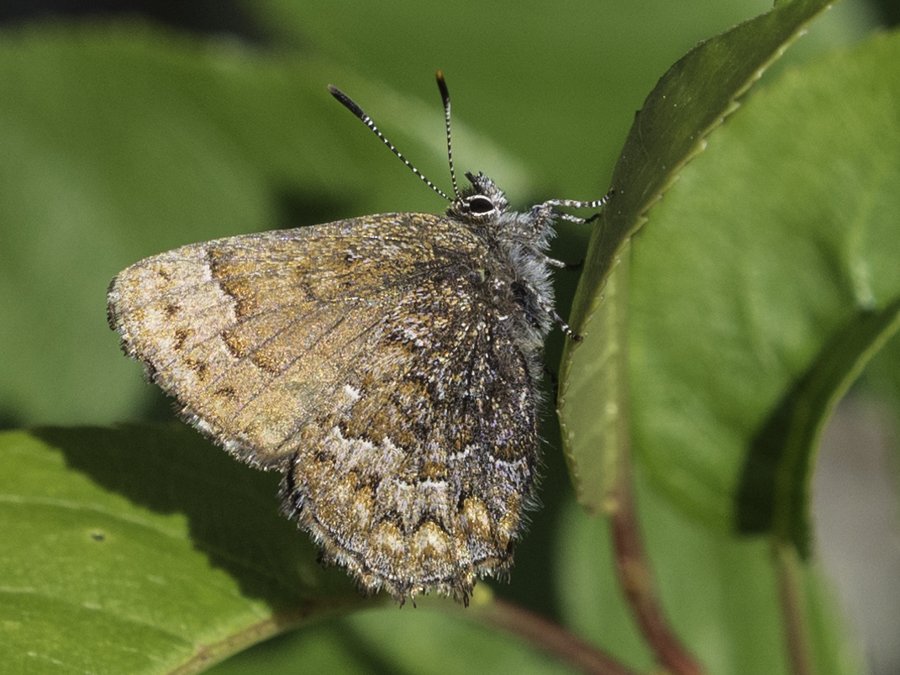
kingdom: Animalia
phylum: Arthropoda
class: Insecta
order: Lepidoptera
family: Lycaenidae
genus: Incisalia
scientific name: Incisalia niphon
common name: Eastern Pine Elfin
